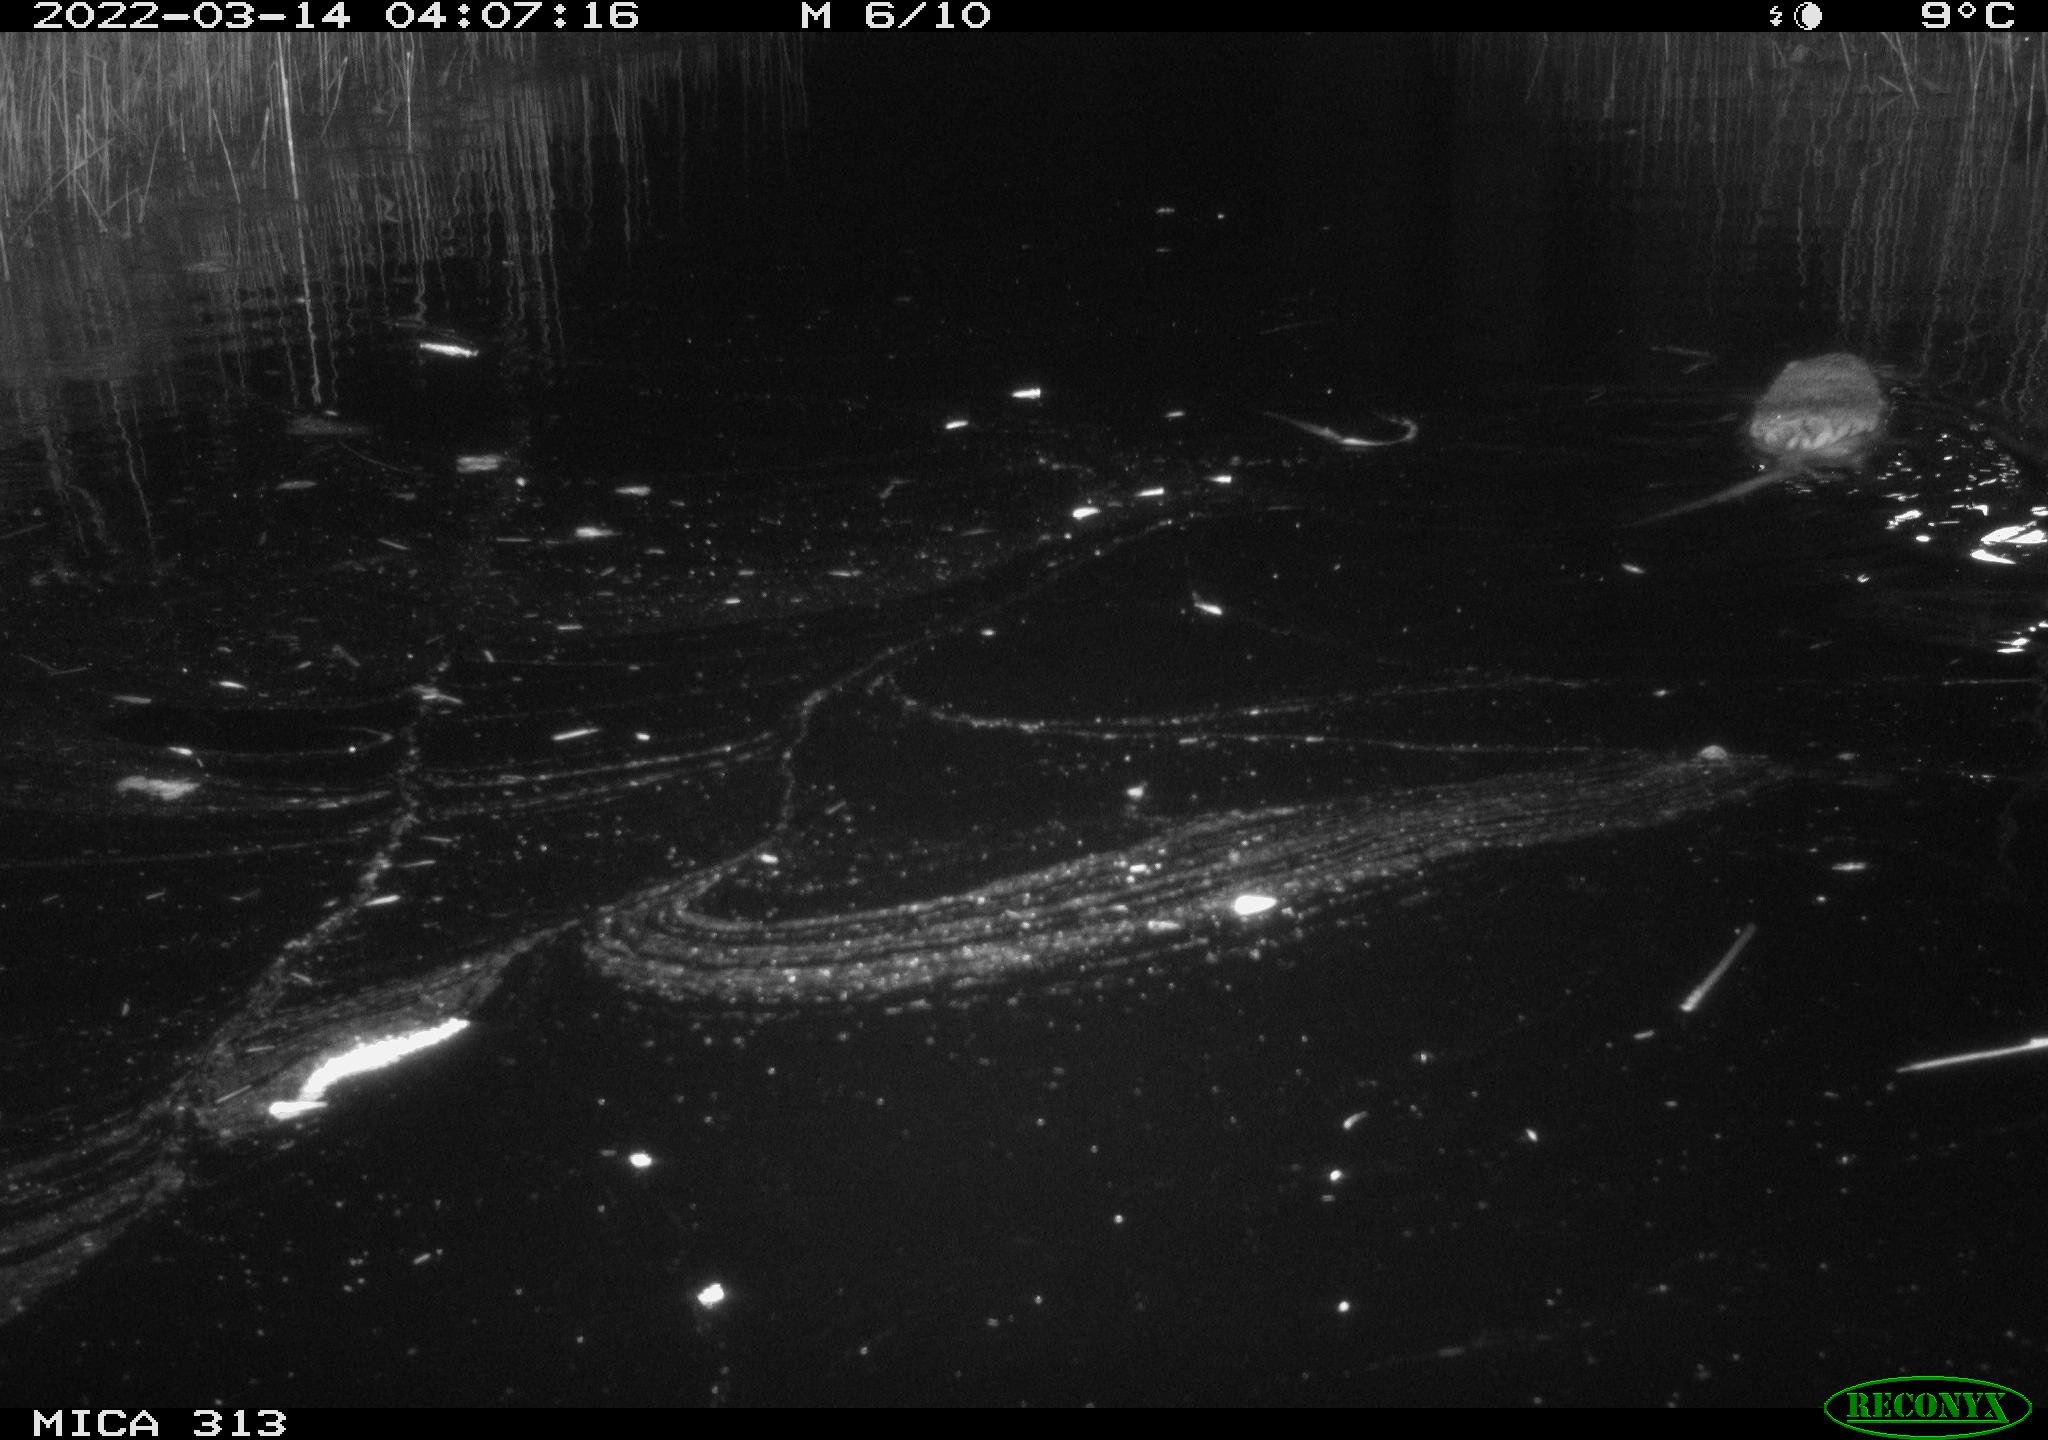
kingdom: Animalia
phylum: Chordata
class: Mammalia
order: Rodentia
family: Cricetidae
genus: Ondatra
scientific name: Ondatra zibethicus
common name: Muskrat
